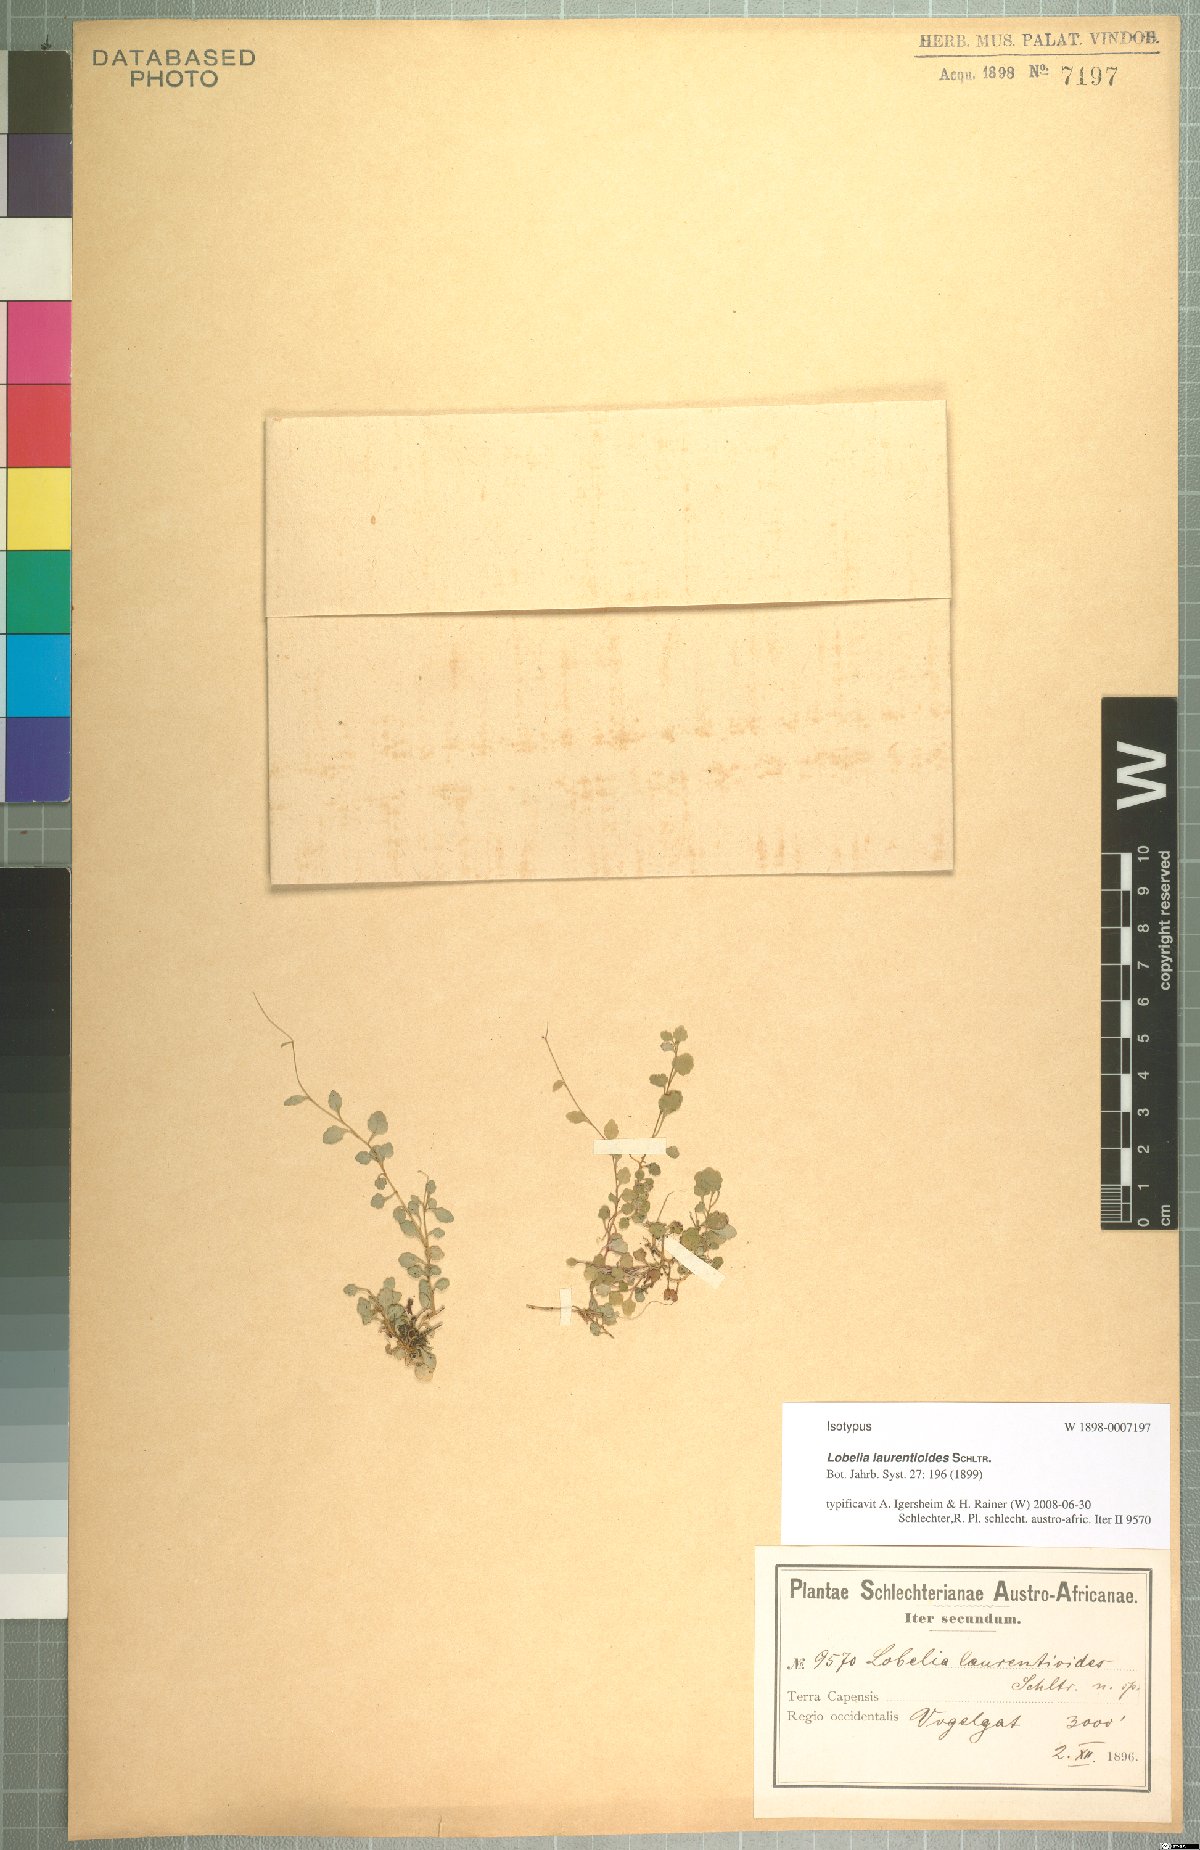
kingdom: Plantae
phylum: Tracheophyta
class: Magnoliopsida
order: Asterales
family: Campanulaceae
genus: Lobelia
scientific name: Lobelia laurentioides
